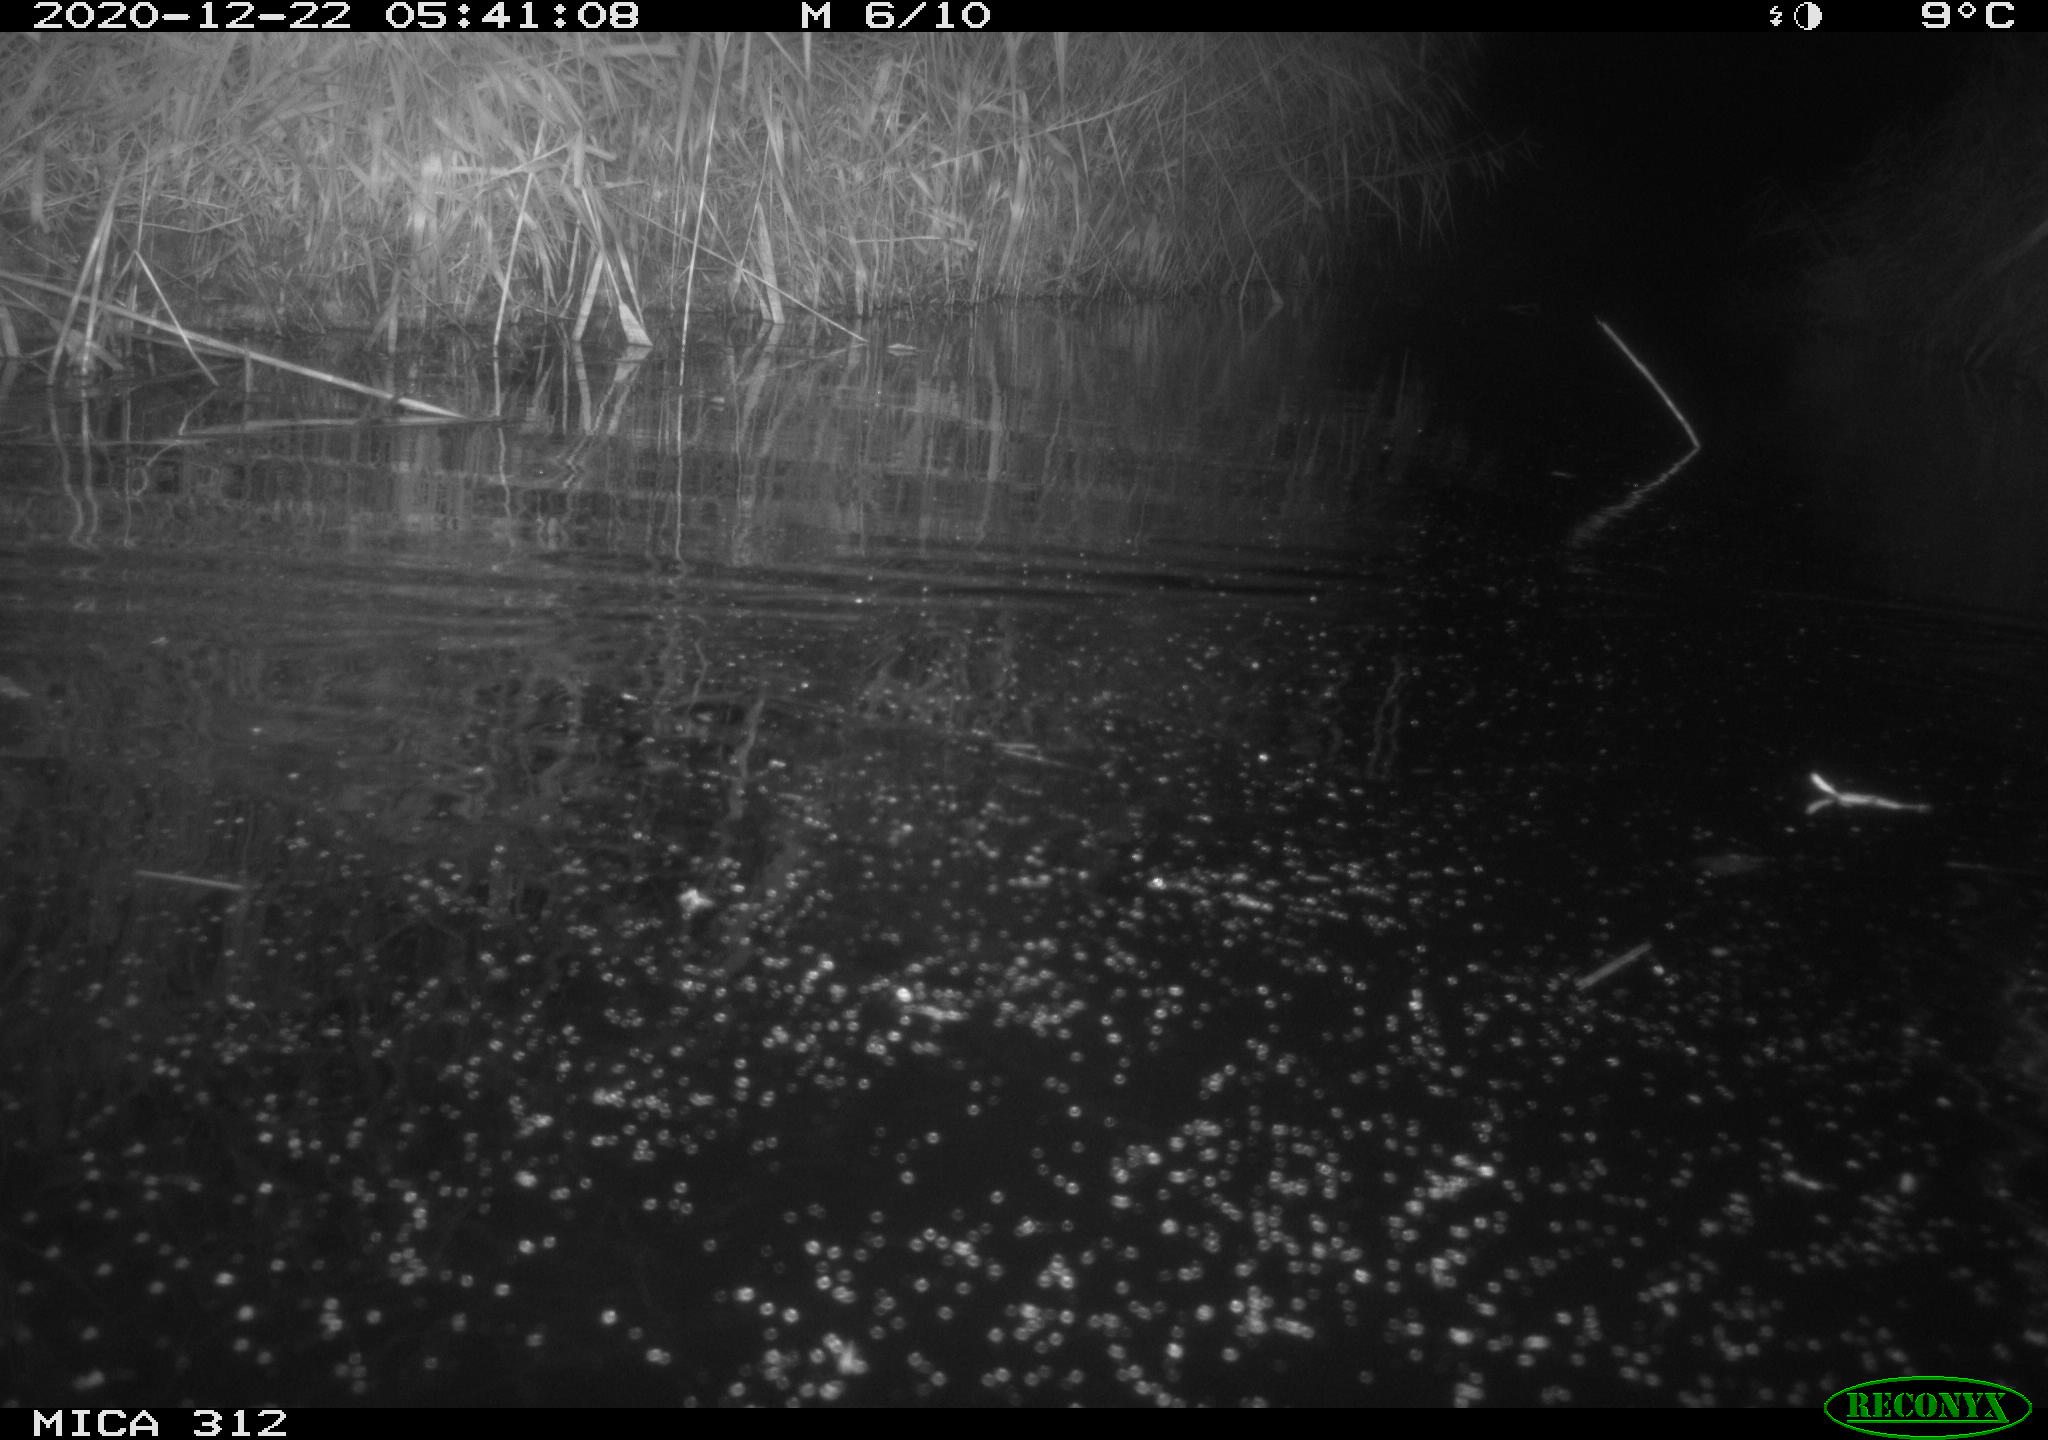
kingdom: Animalia
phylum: Chordata
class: Mammalia
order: Rodentia
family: Muridae
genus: Rattus
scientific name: Rattus norvegicus
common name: Brown rat
